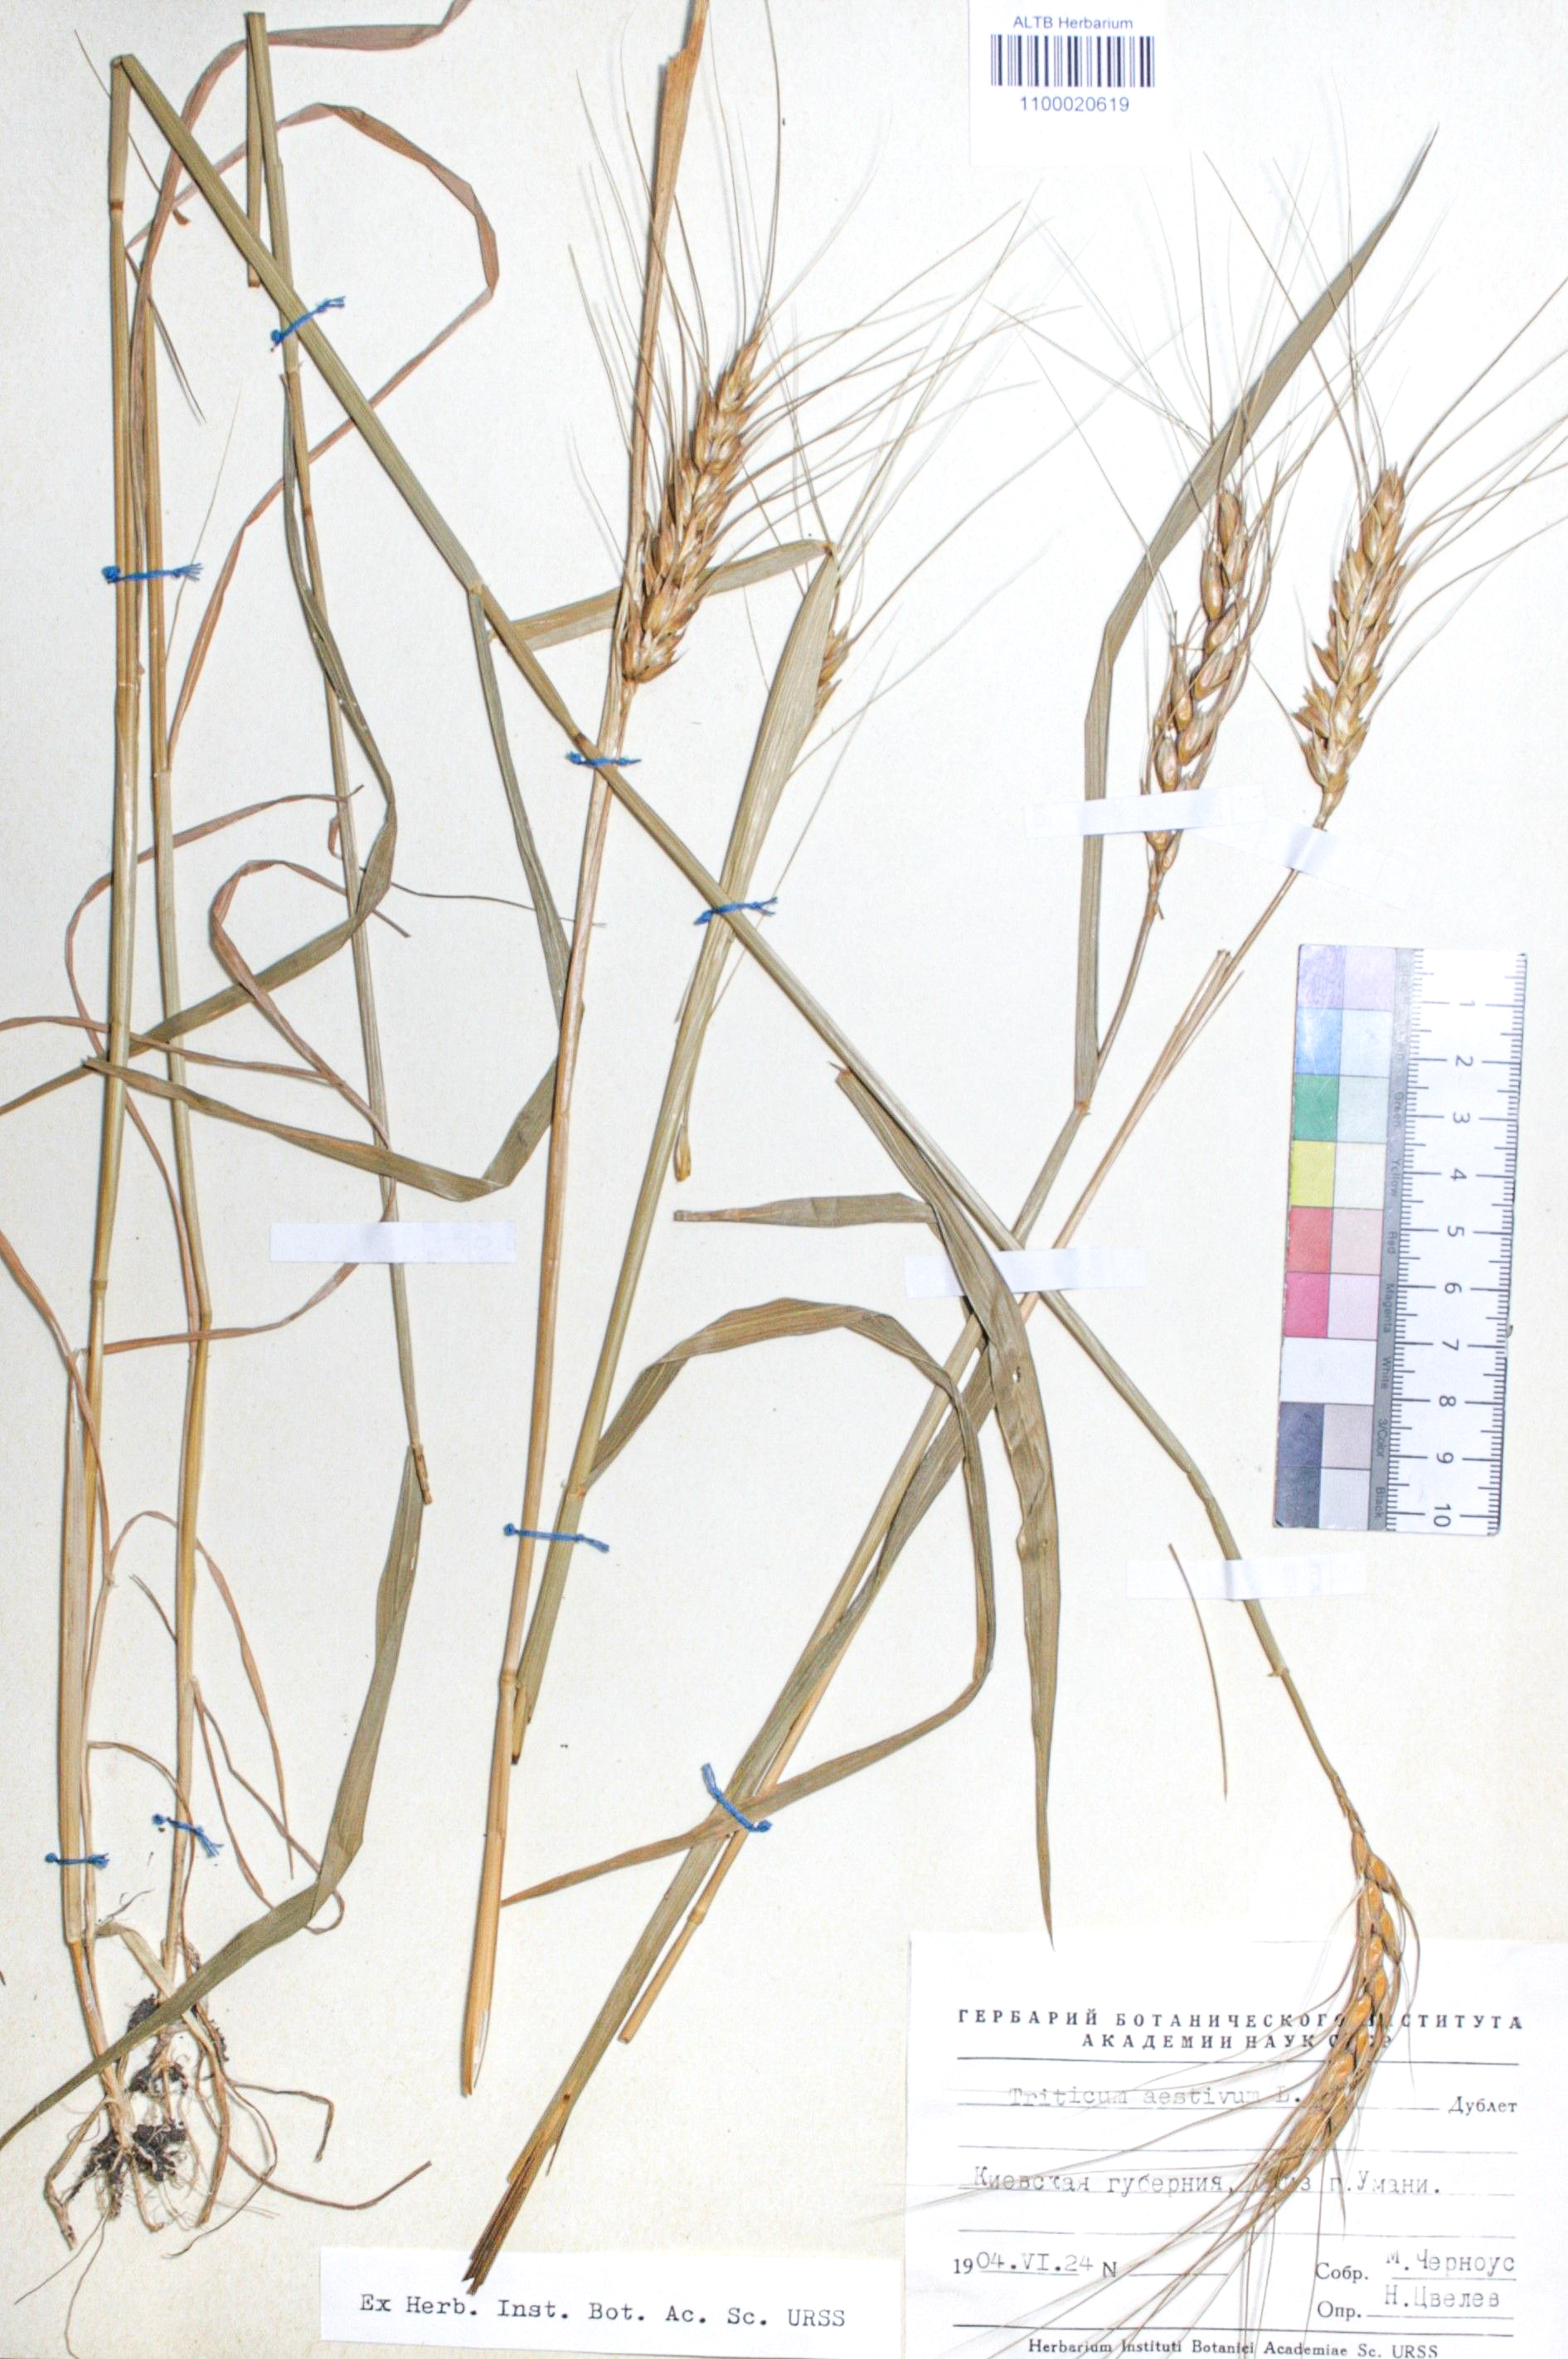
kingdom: Plantae
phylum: Tracheophyta
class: Liliopsida
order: Poales
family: Poaceae
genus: Triticum
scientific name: Triticum aestivum
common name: Common wheat
